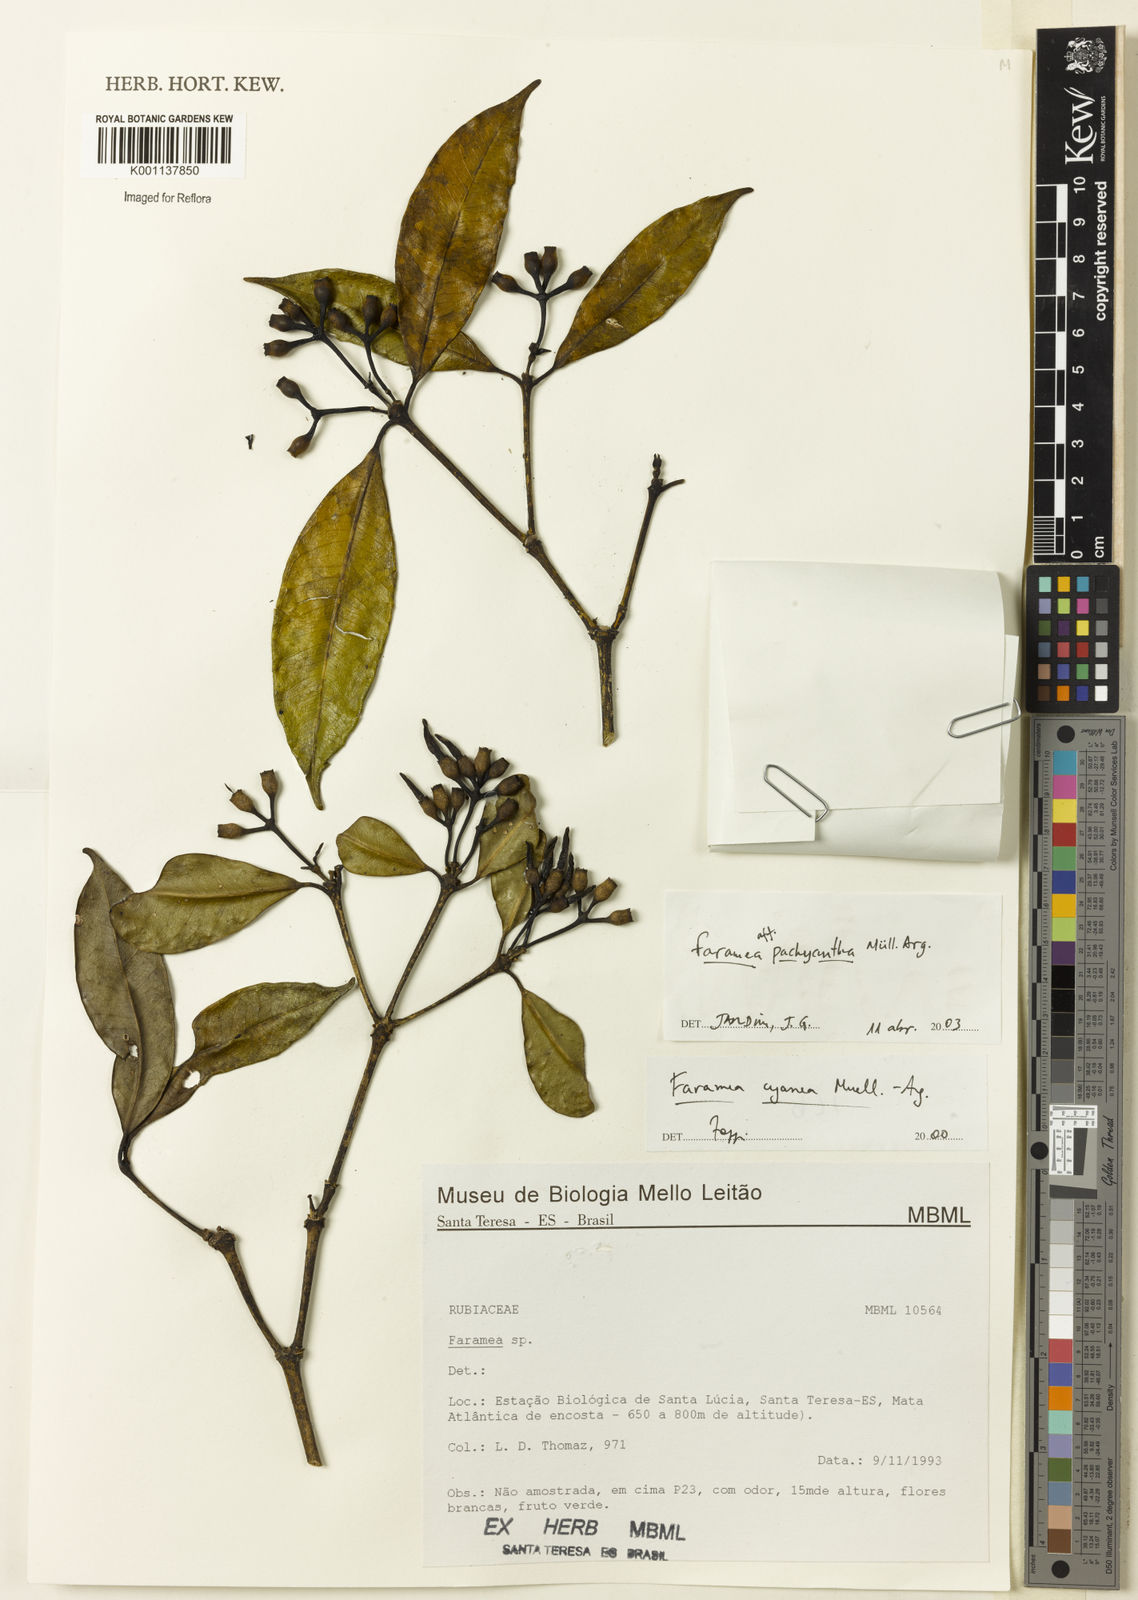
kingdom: Plantae
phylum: Tracheophyta
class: Magnoliopsida
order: Gentianales
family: Rubiaceae
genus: Faramea
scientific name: Faramea
